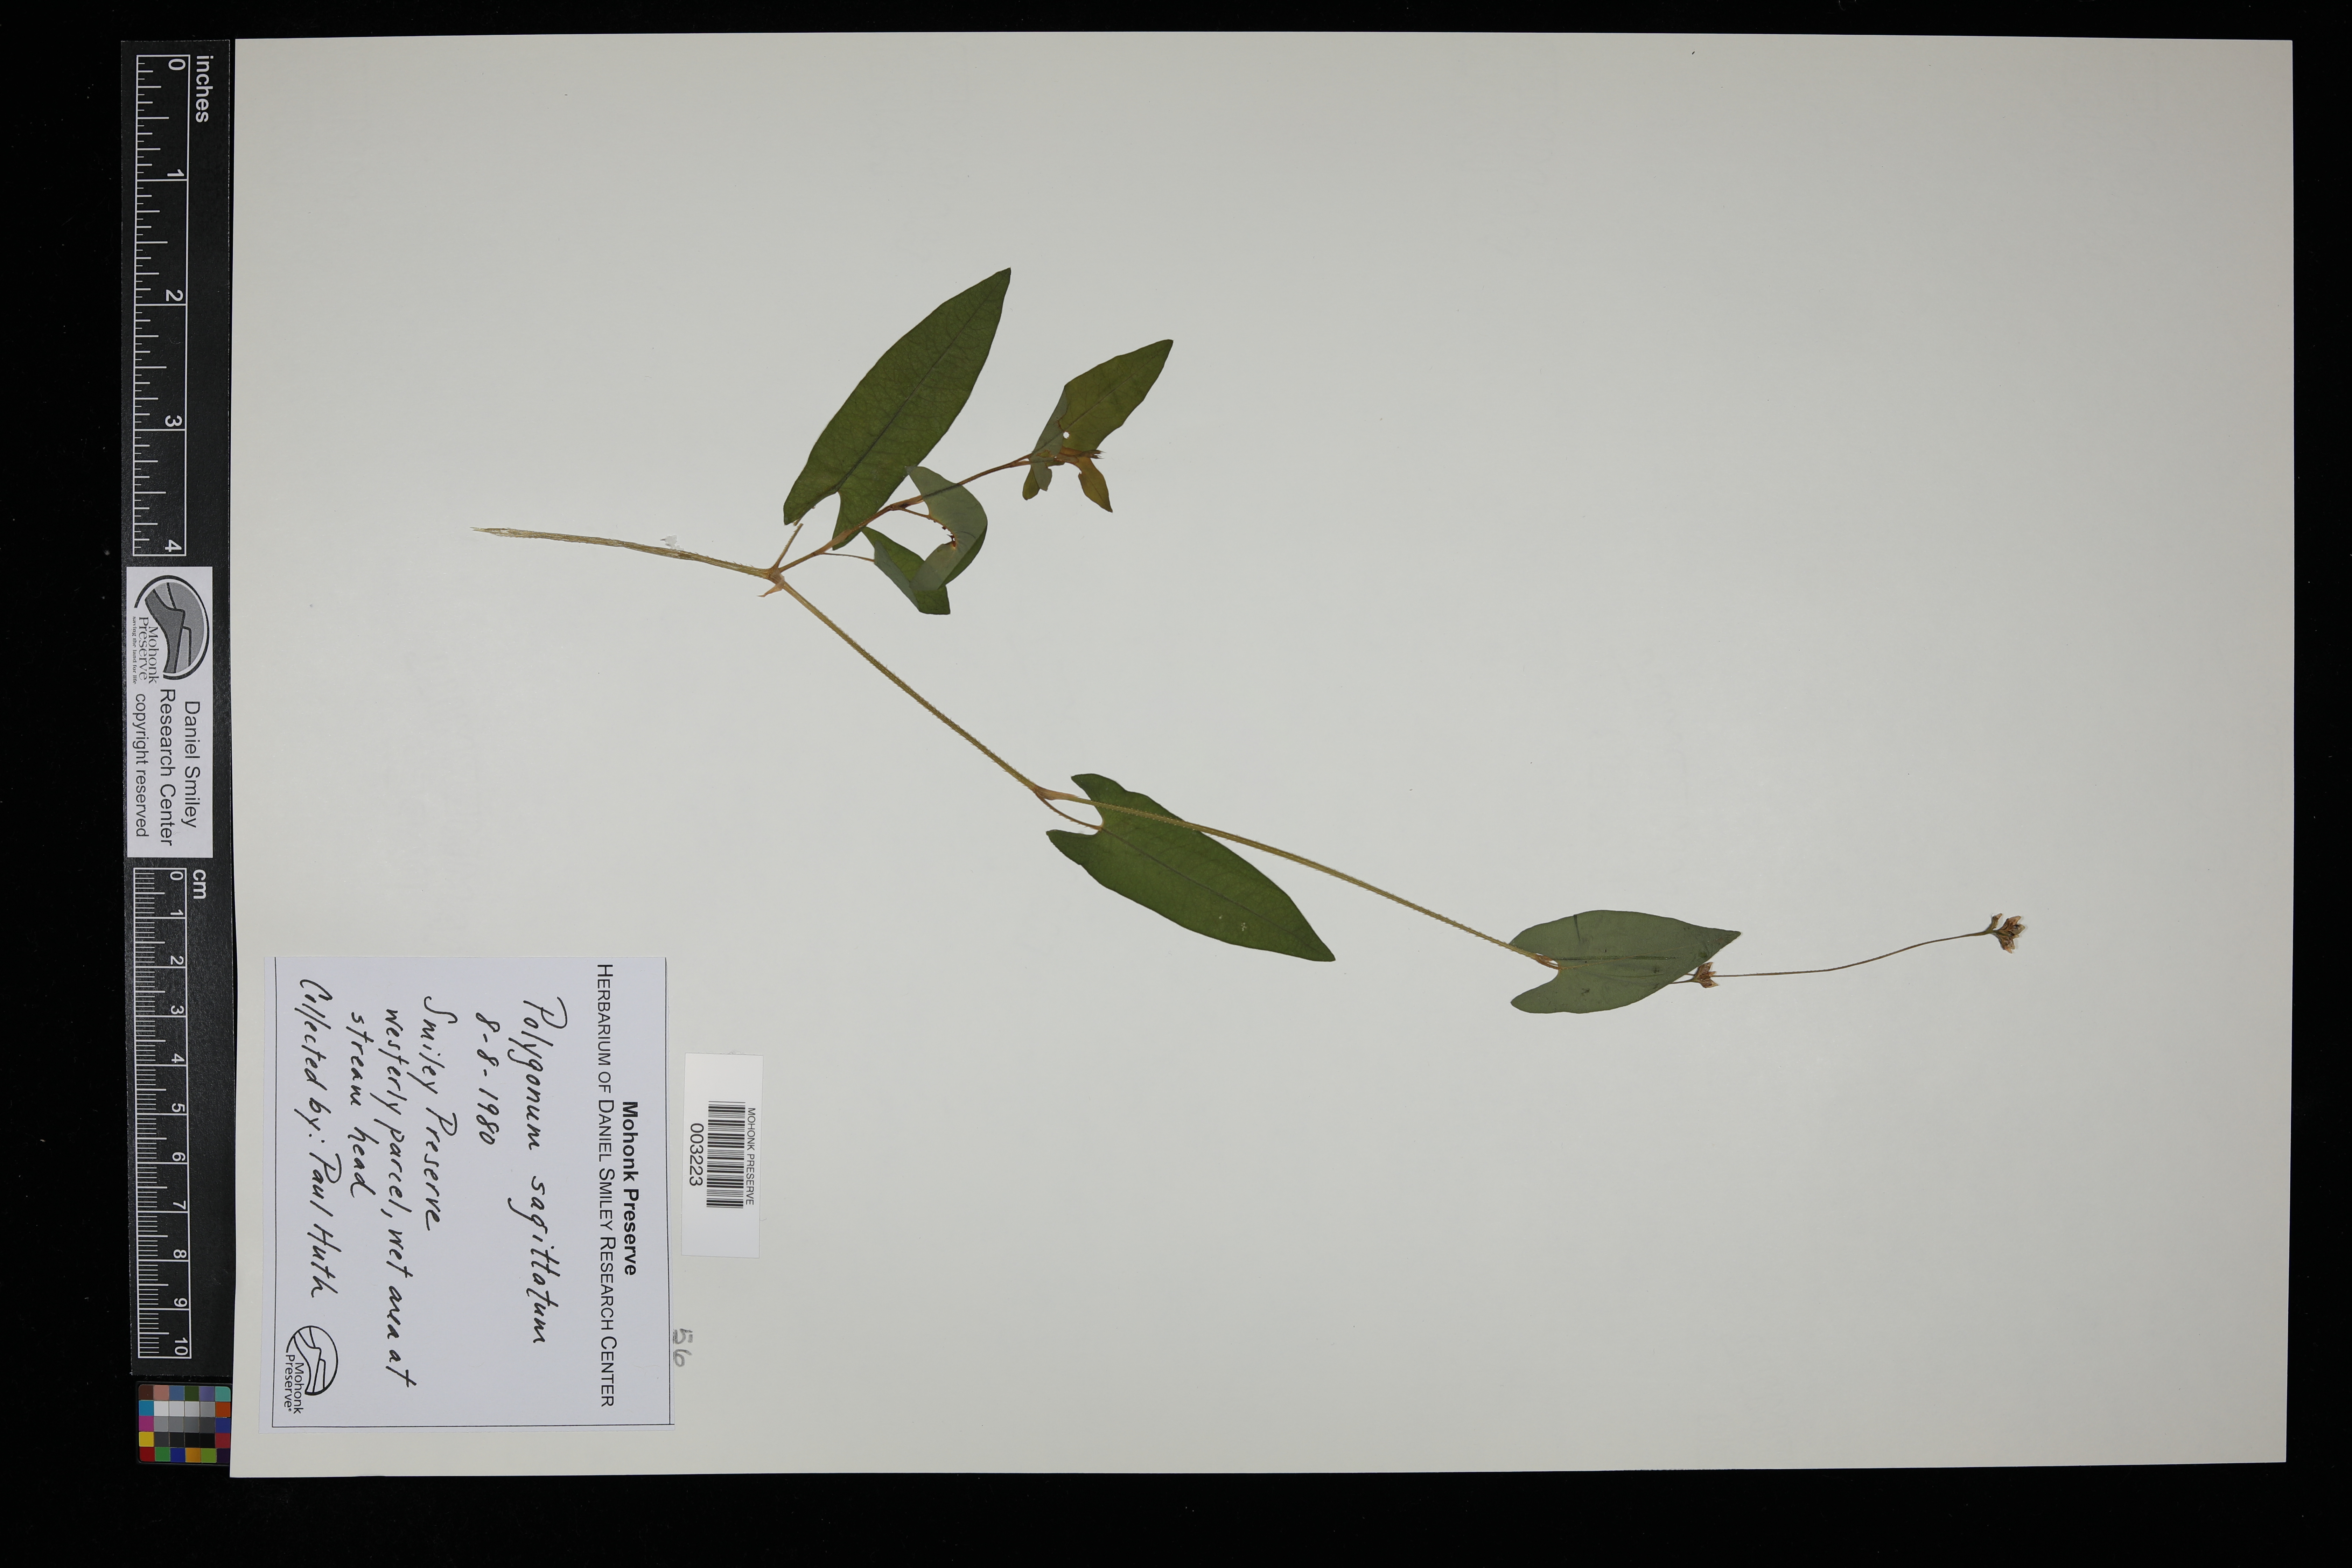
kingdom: Plantae
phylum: Tracheophyta
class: Magnoliopsida
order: Caryophyllales
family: Polygonaceae
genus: Persicaria
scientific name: Persicaria sagittata
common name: American tearthumb
